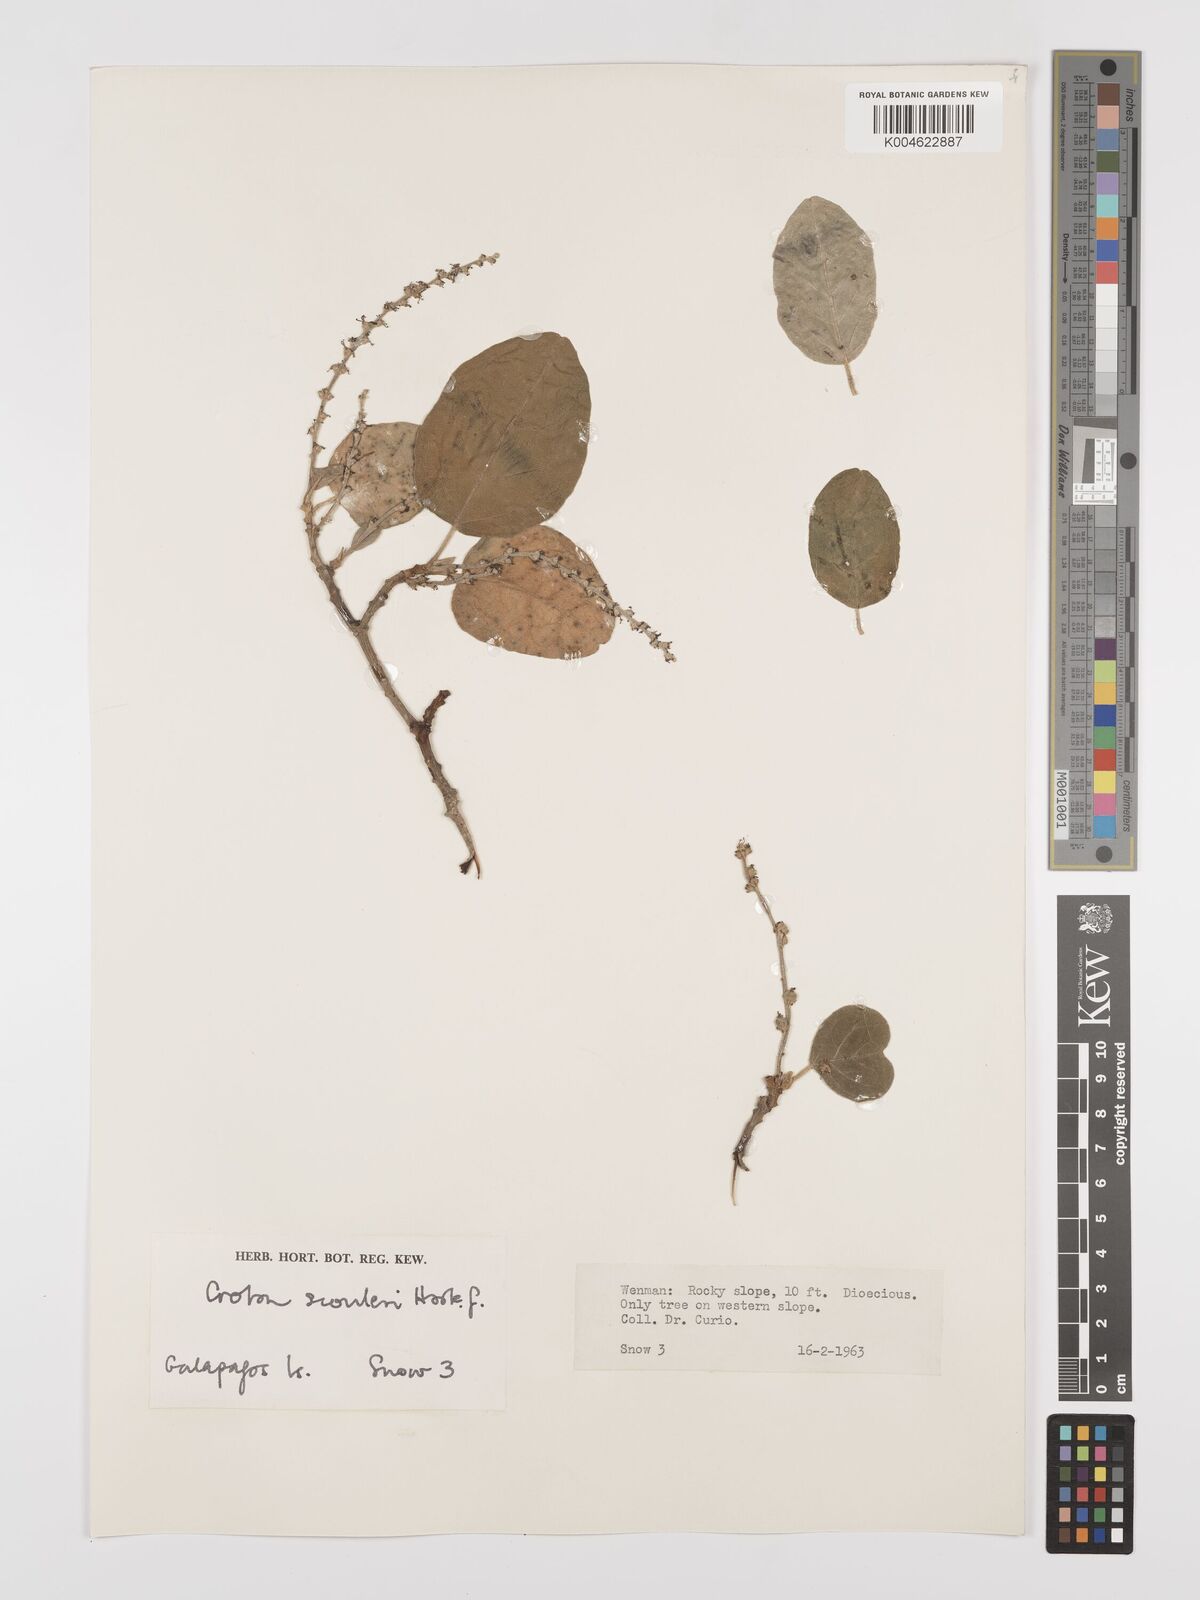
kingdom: Plantae
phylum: Tracheophyta
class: Magnoliopsida
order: Malpighiales
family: Euphorbiaceae
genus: Croton
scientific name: Croton scouleri
